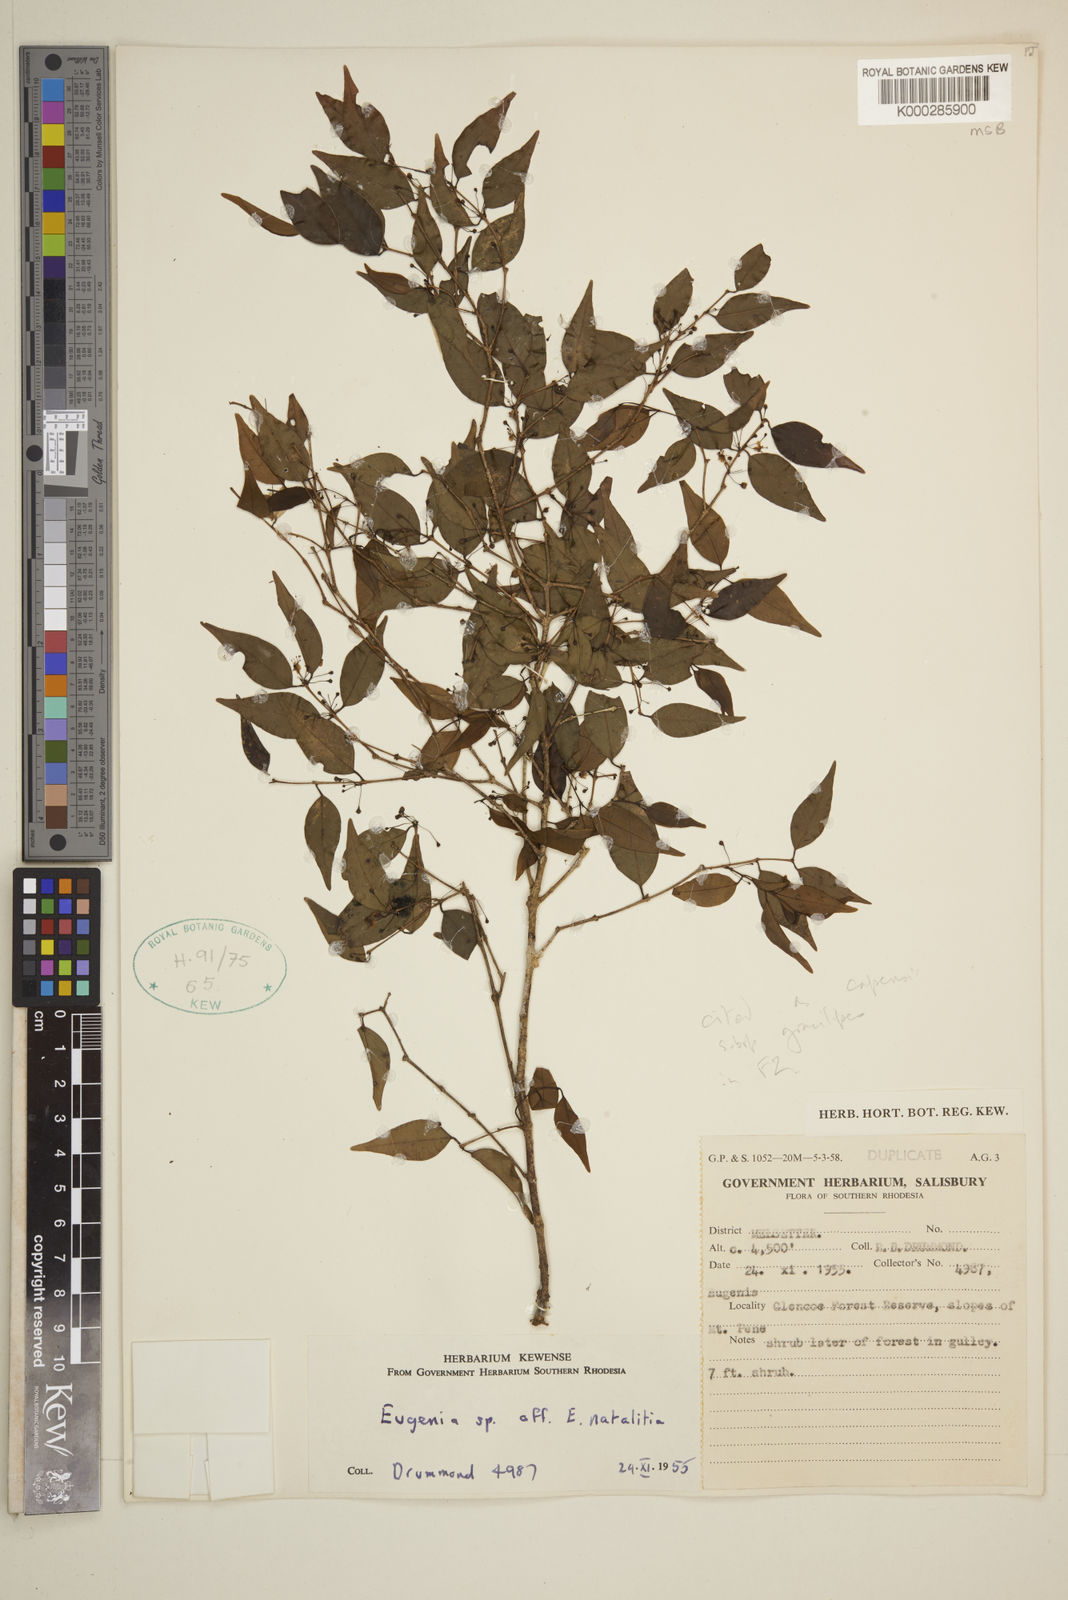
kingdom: Plantae
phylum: Tracheophyta
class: Magnoliopsida
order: Myrtales
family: Myrtaceae
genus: Eugenia
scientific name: Eugenia capensis
